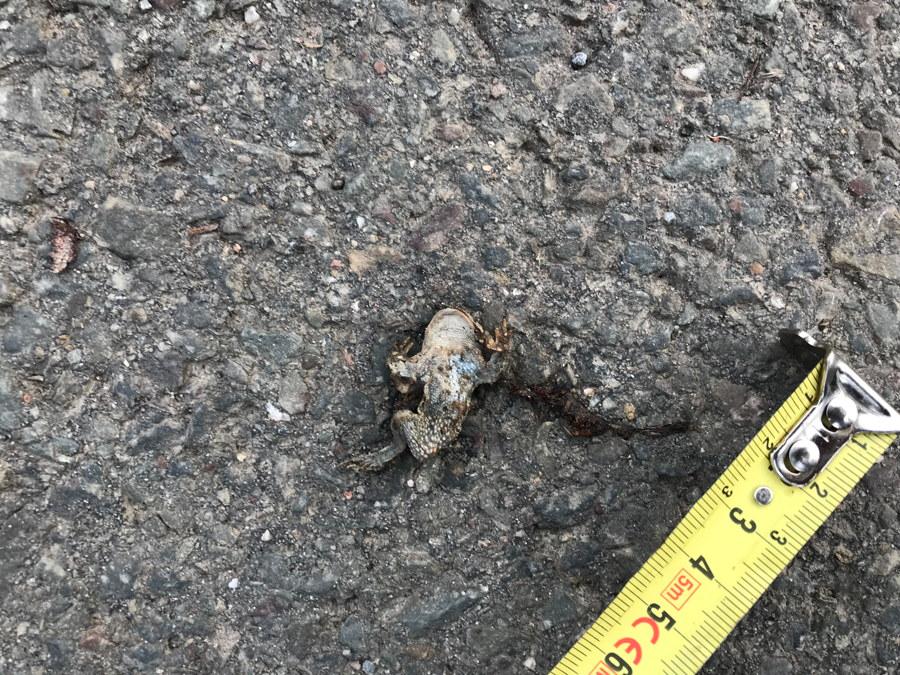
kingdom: Animalia
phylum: Chordata
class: Amphibia
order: Anura
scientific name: Anura
